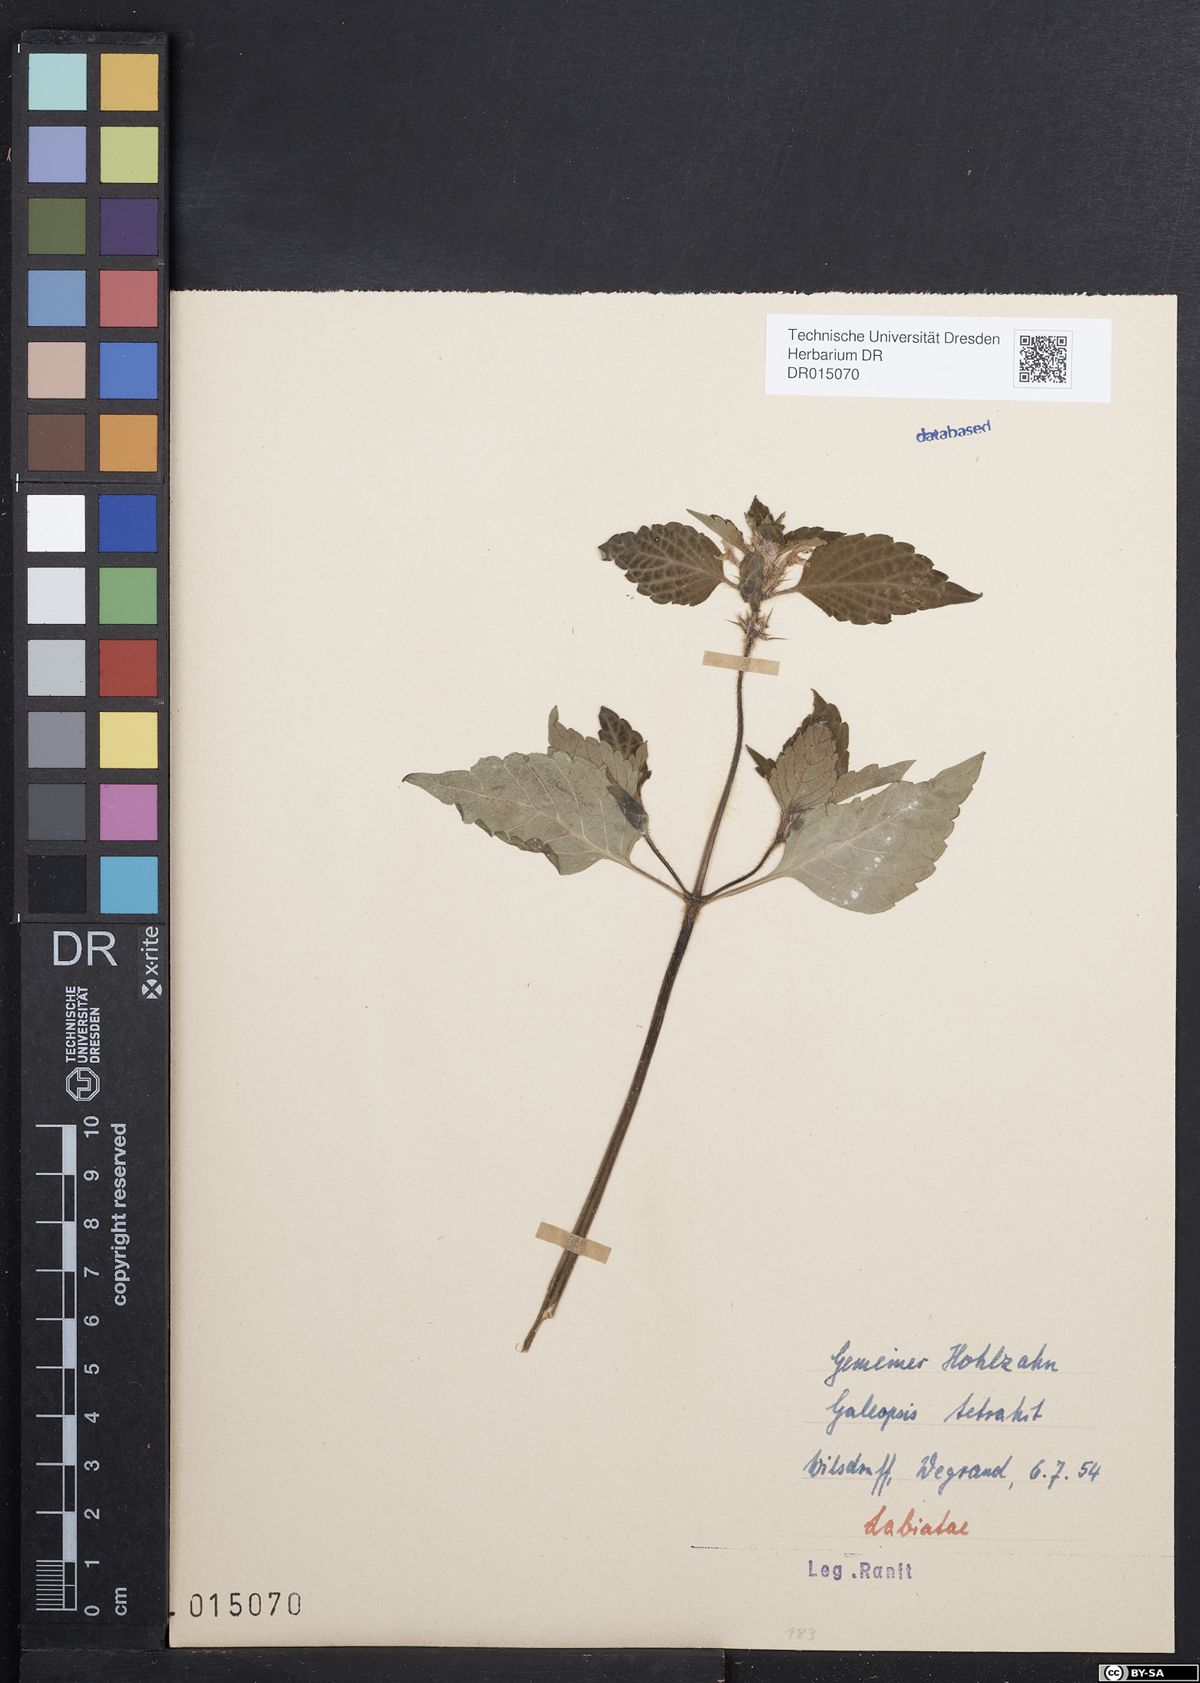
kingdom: Plantae
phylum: Tracheophyta
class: Magnoliopsida
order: Lamiales
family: Lamiaceae
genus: Galeopsis
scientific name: Galeopsis tetrahit
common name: Common hemp-nettle
